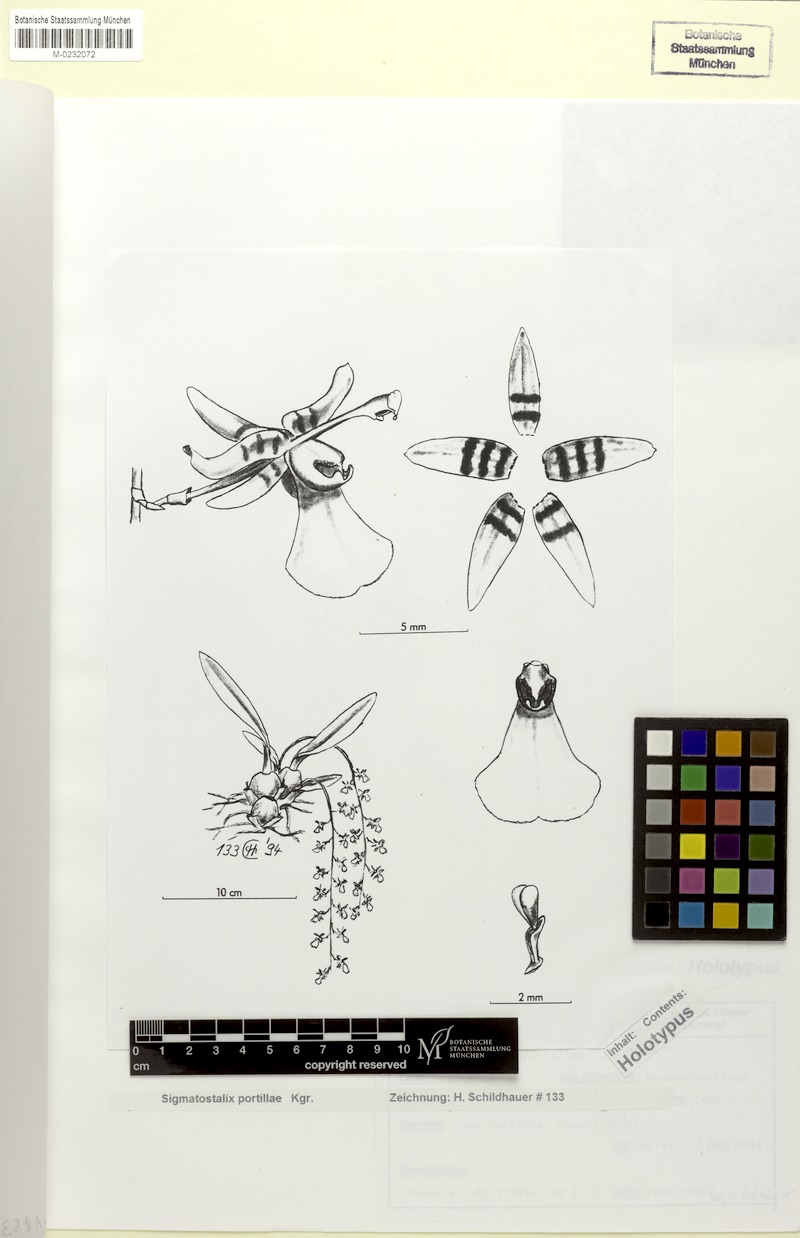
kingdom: Plantae
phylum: Tracheophyta
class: Liliopsida
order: Asparagales
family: Orchidaceae
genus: Oncidium
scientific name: Oncidium portillaellum
